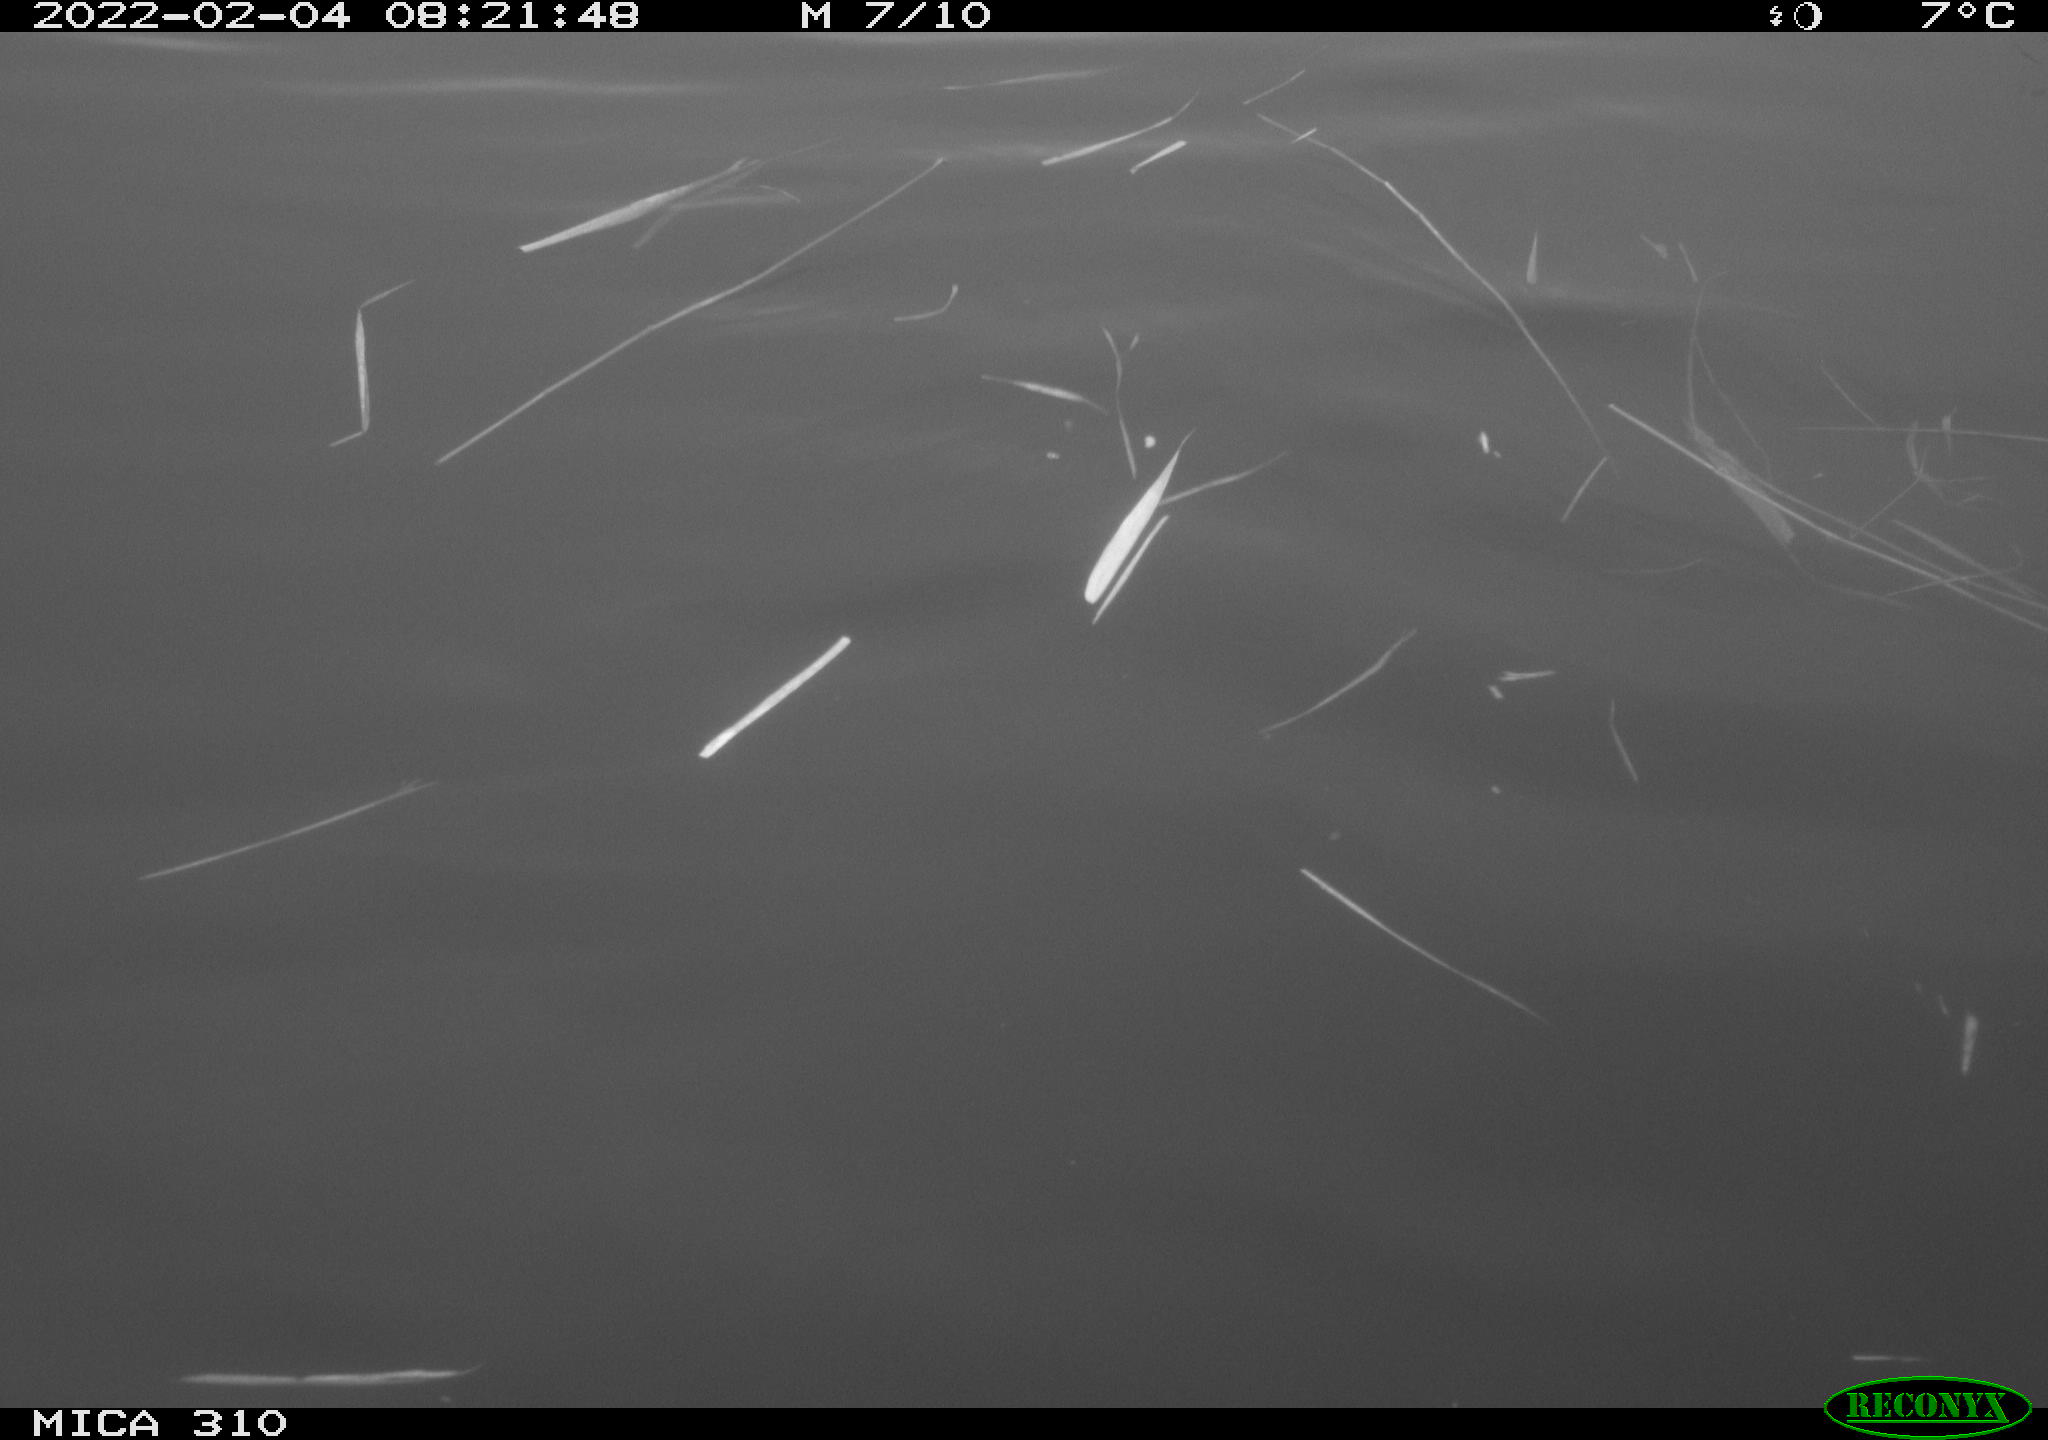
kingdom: Animalia
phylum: Chordata
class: Aves
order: Gruiformes
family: Rallidae
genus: Fulica
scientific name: Fulica atra
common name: Eurasian coot
